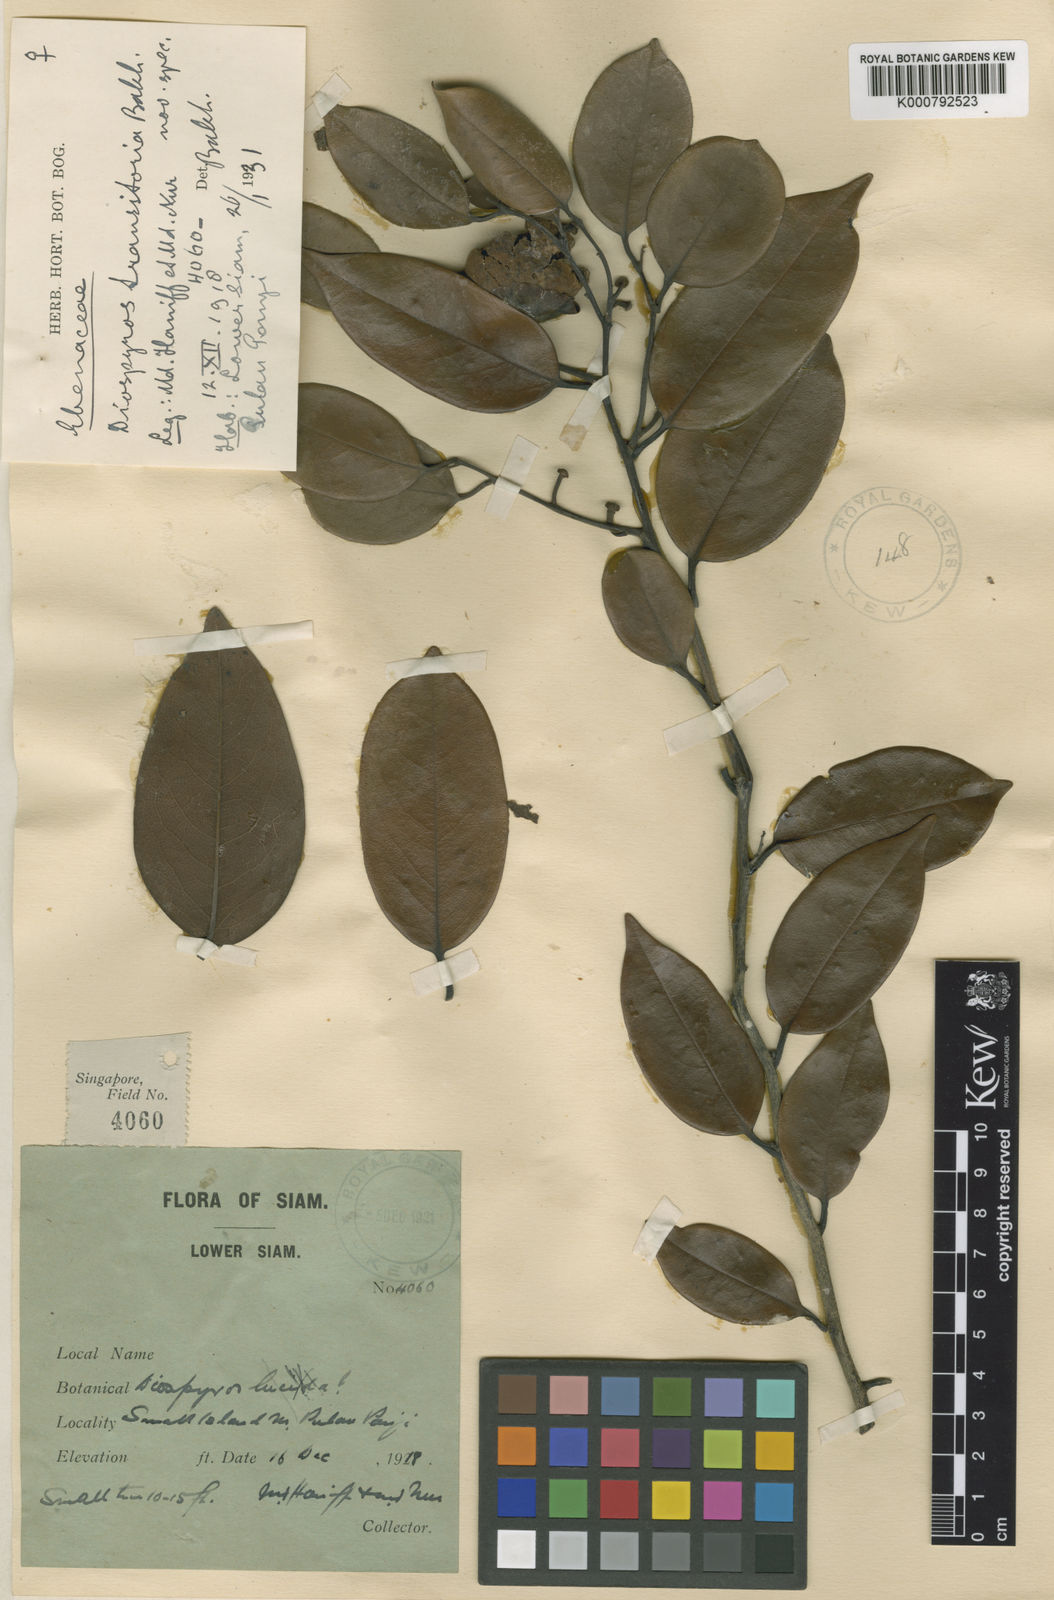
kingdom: Plantae
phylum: Tracheophyta
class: Magnoliopsida
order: Ericales
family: Ebenaceae
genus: Diospyros
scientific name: Diospyros transitoria
